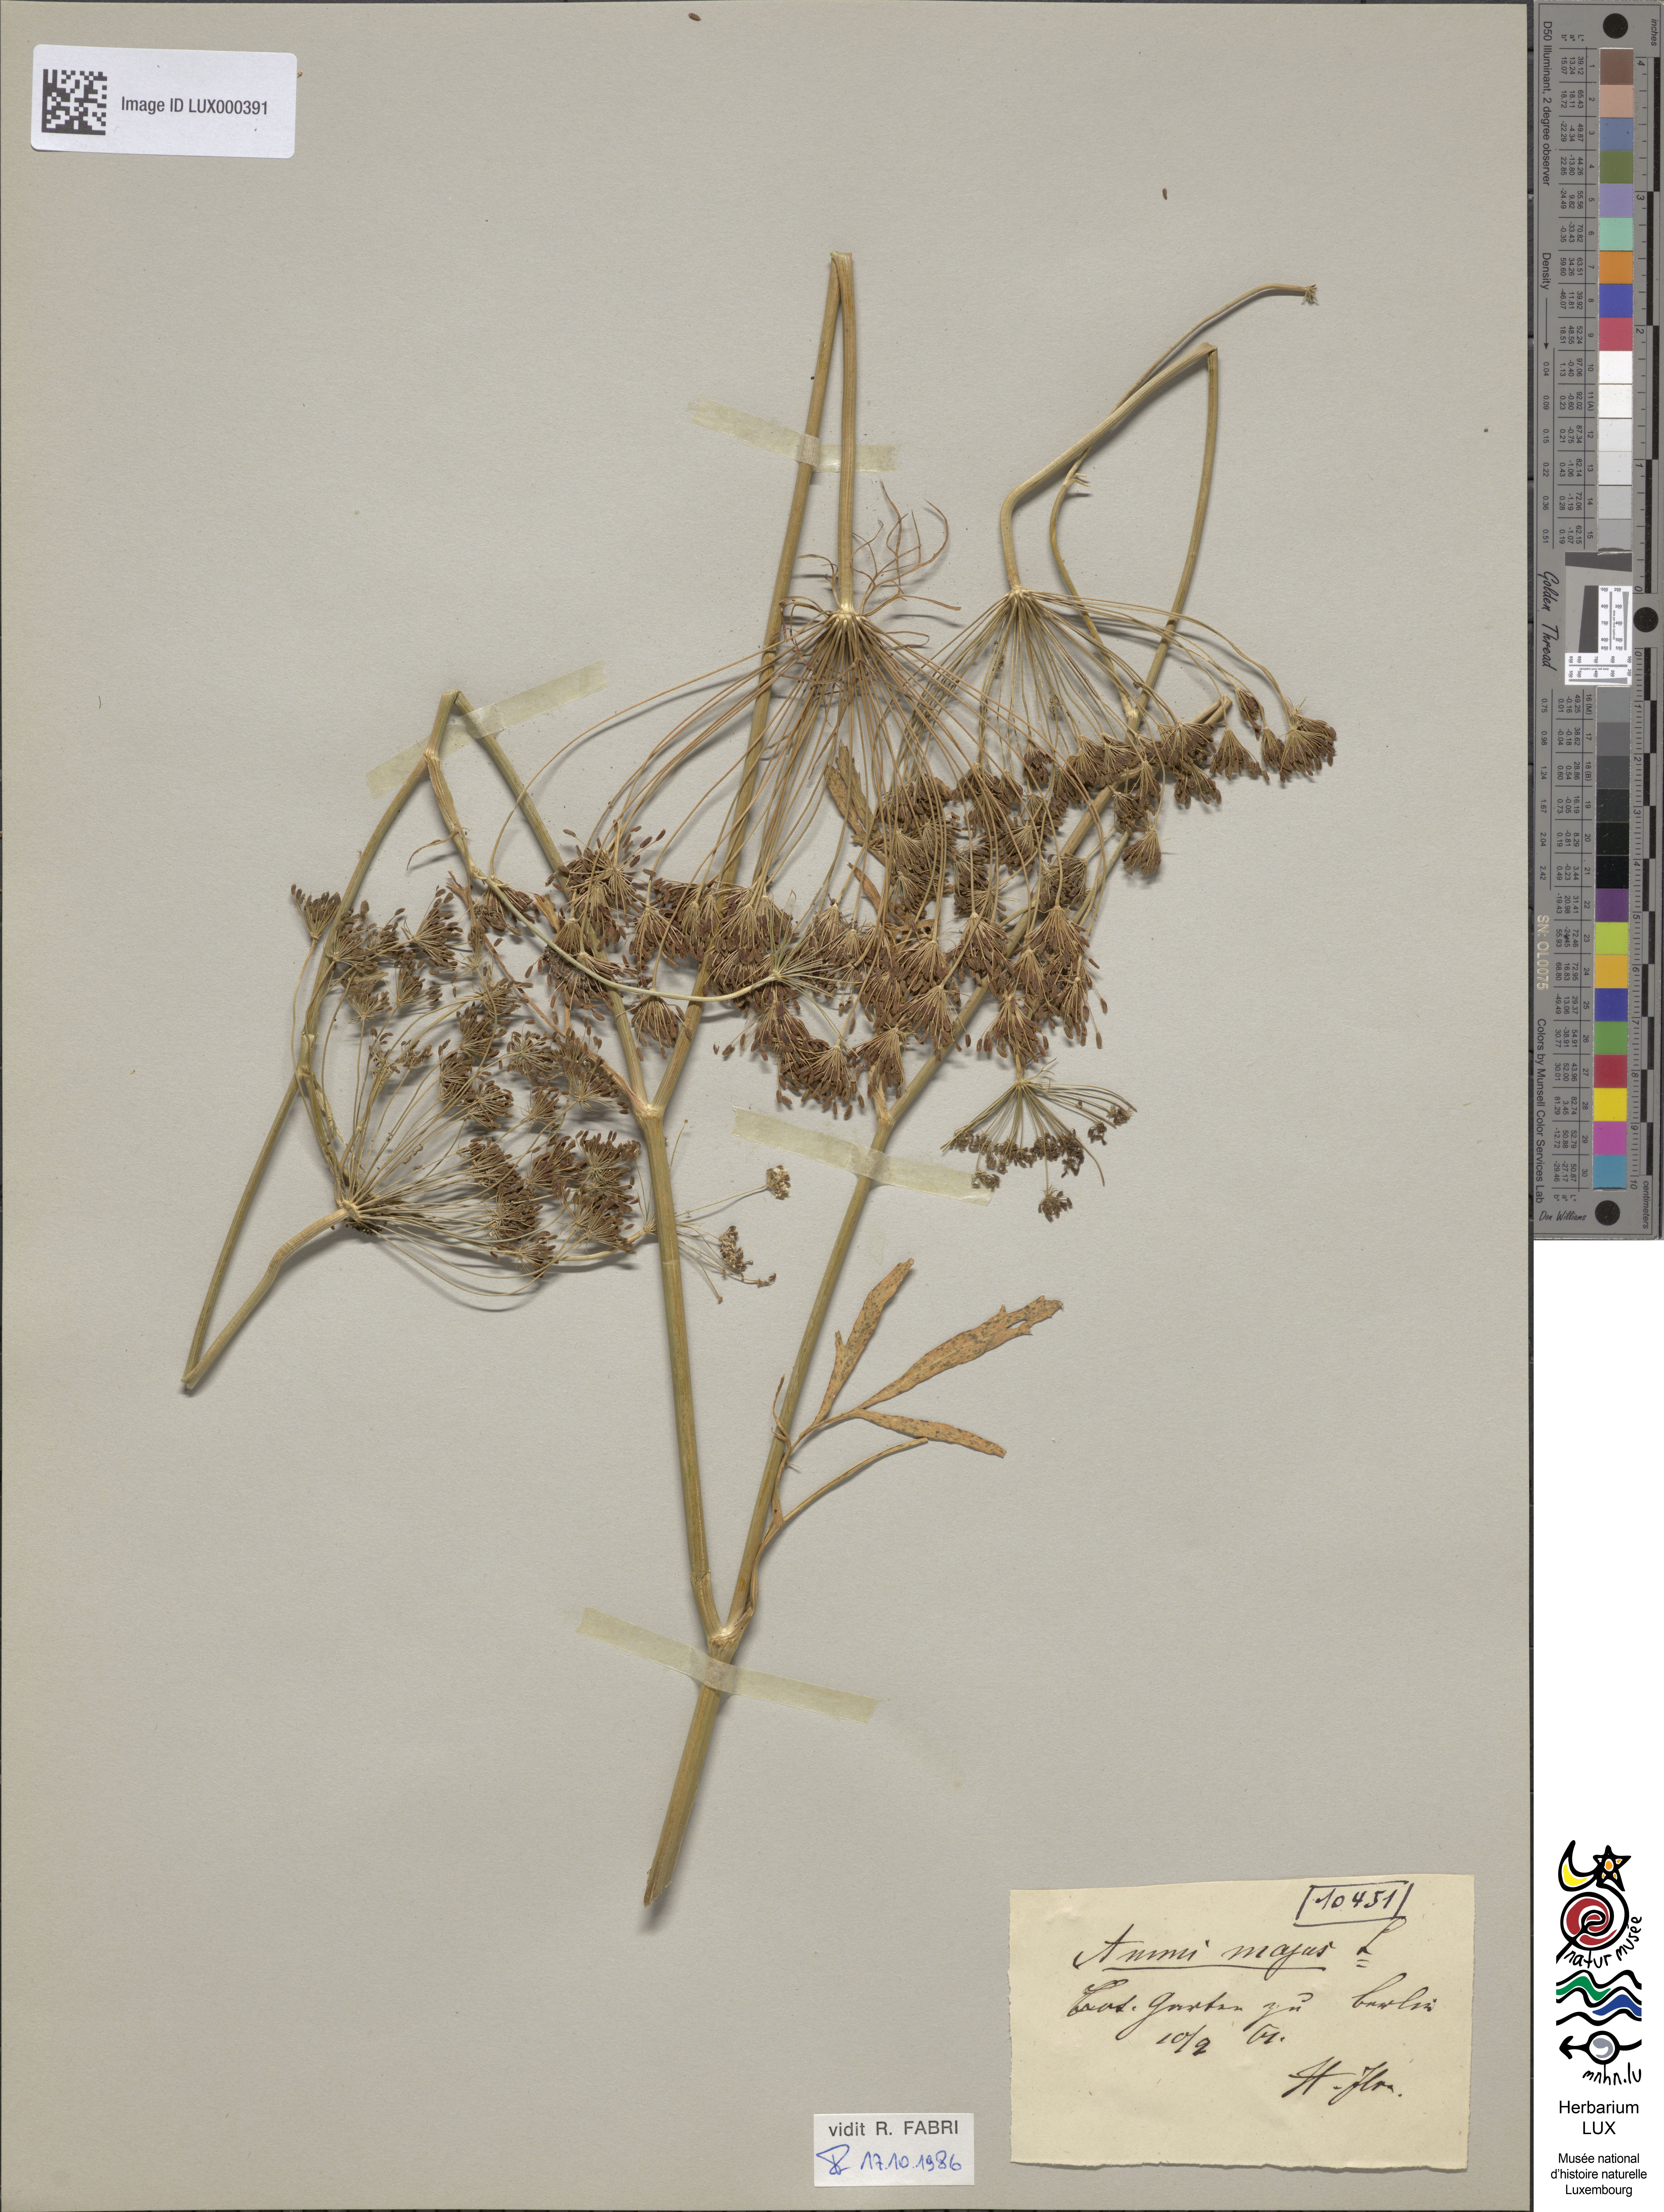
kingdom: Plantae
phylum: Tracheophyta
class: Magnoliopsida
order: Apiales
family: Apiaceae
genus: Ammi
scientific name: Ammi majus
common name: Bullwort
